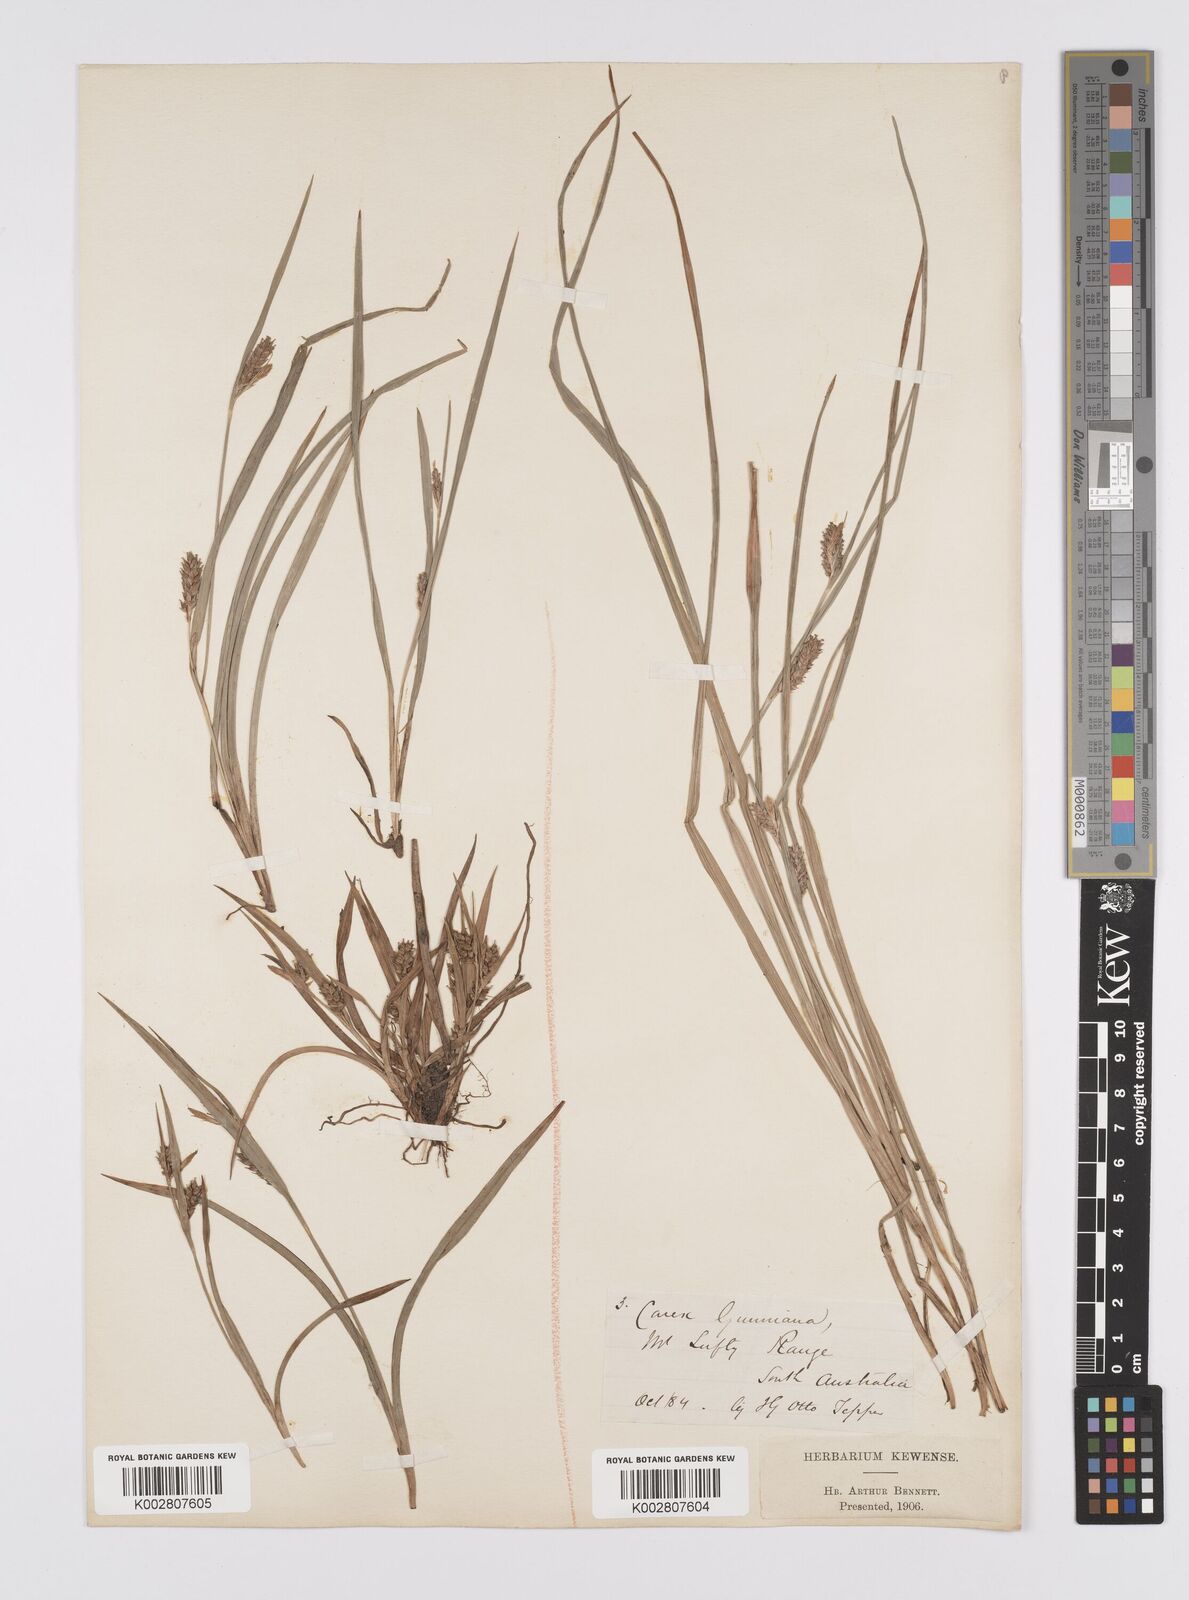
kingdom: Plantae
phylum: Tracheophyta
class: Liliopsida
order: Poales
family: Cyperaceae
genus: Carex
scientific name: Carex gunniana
